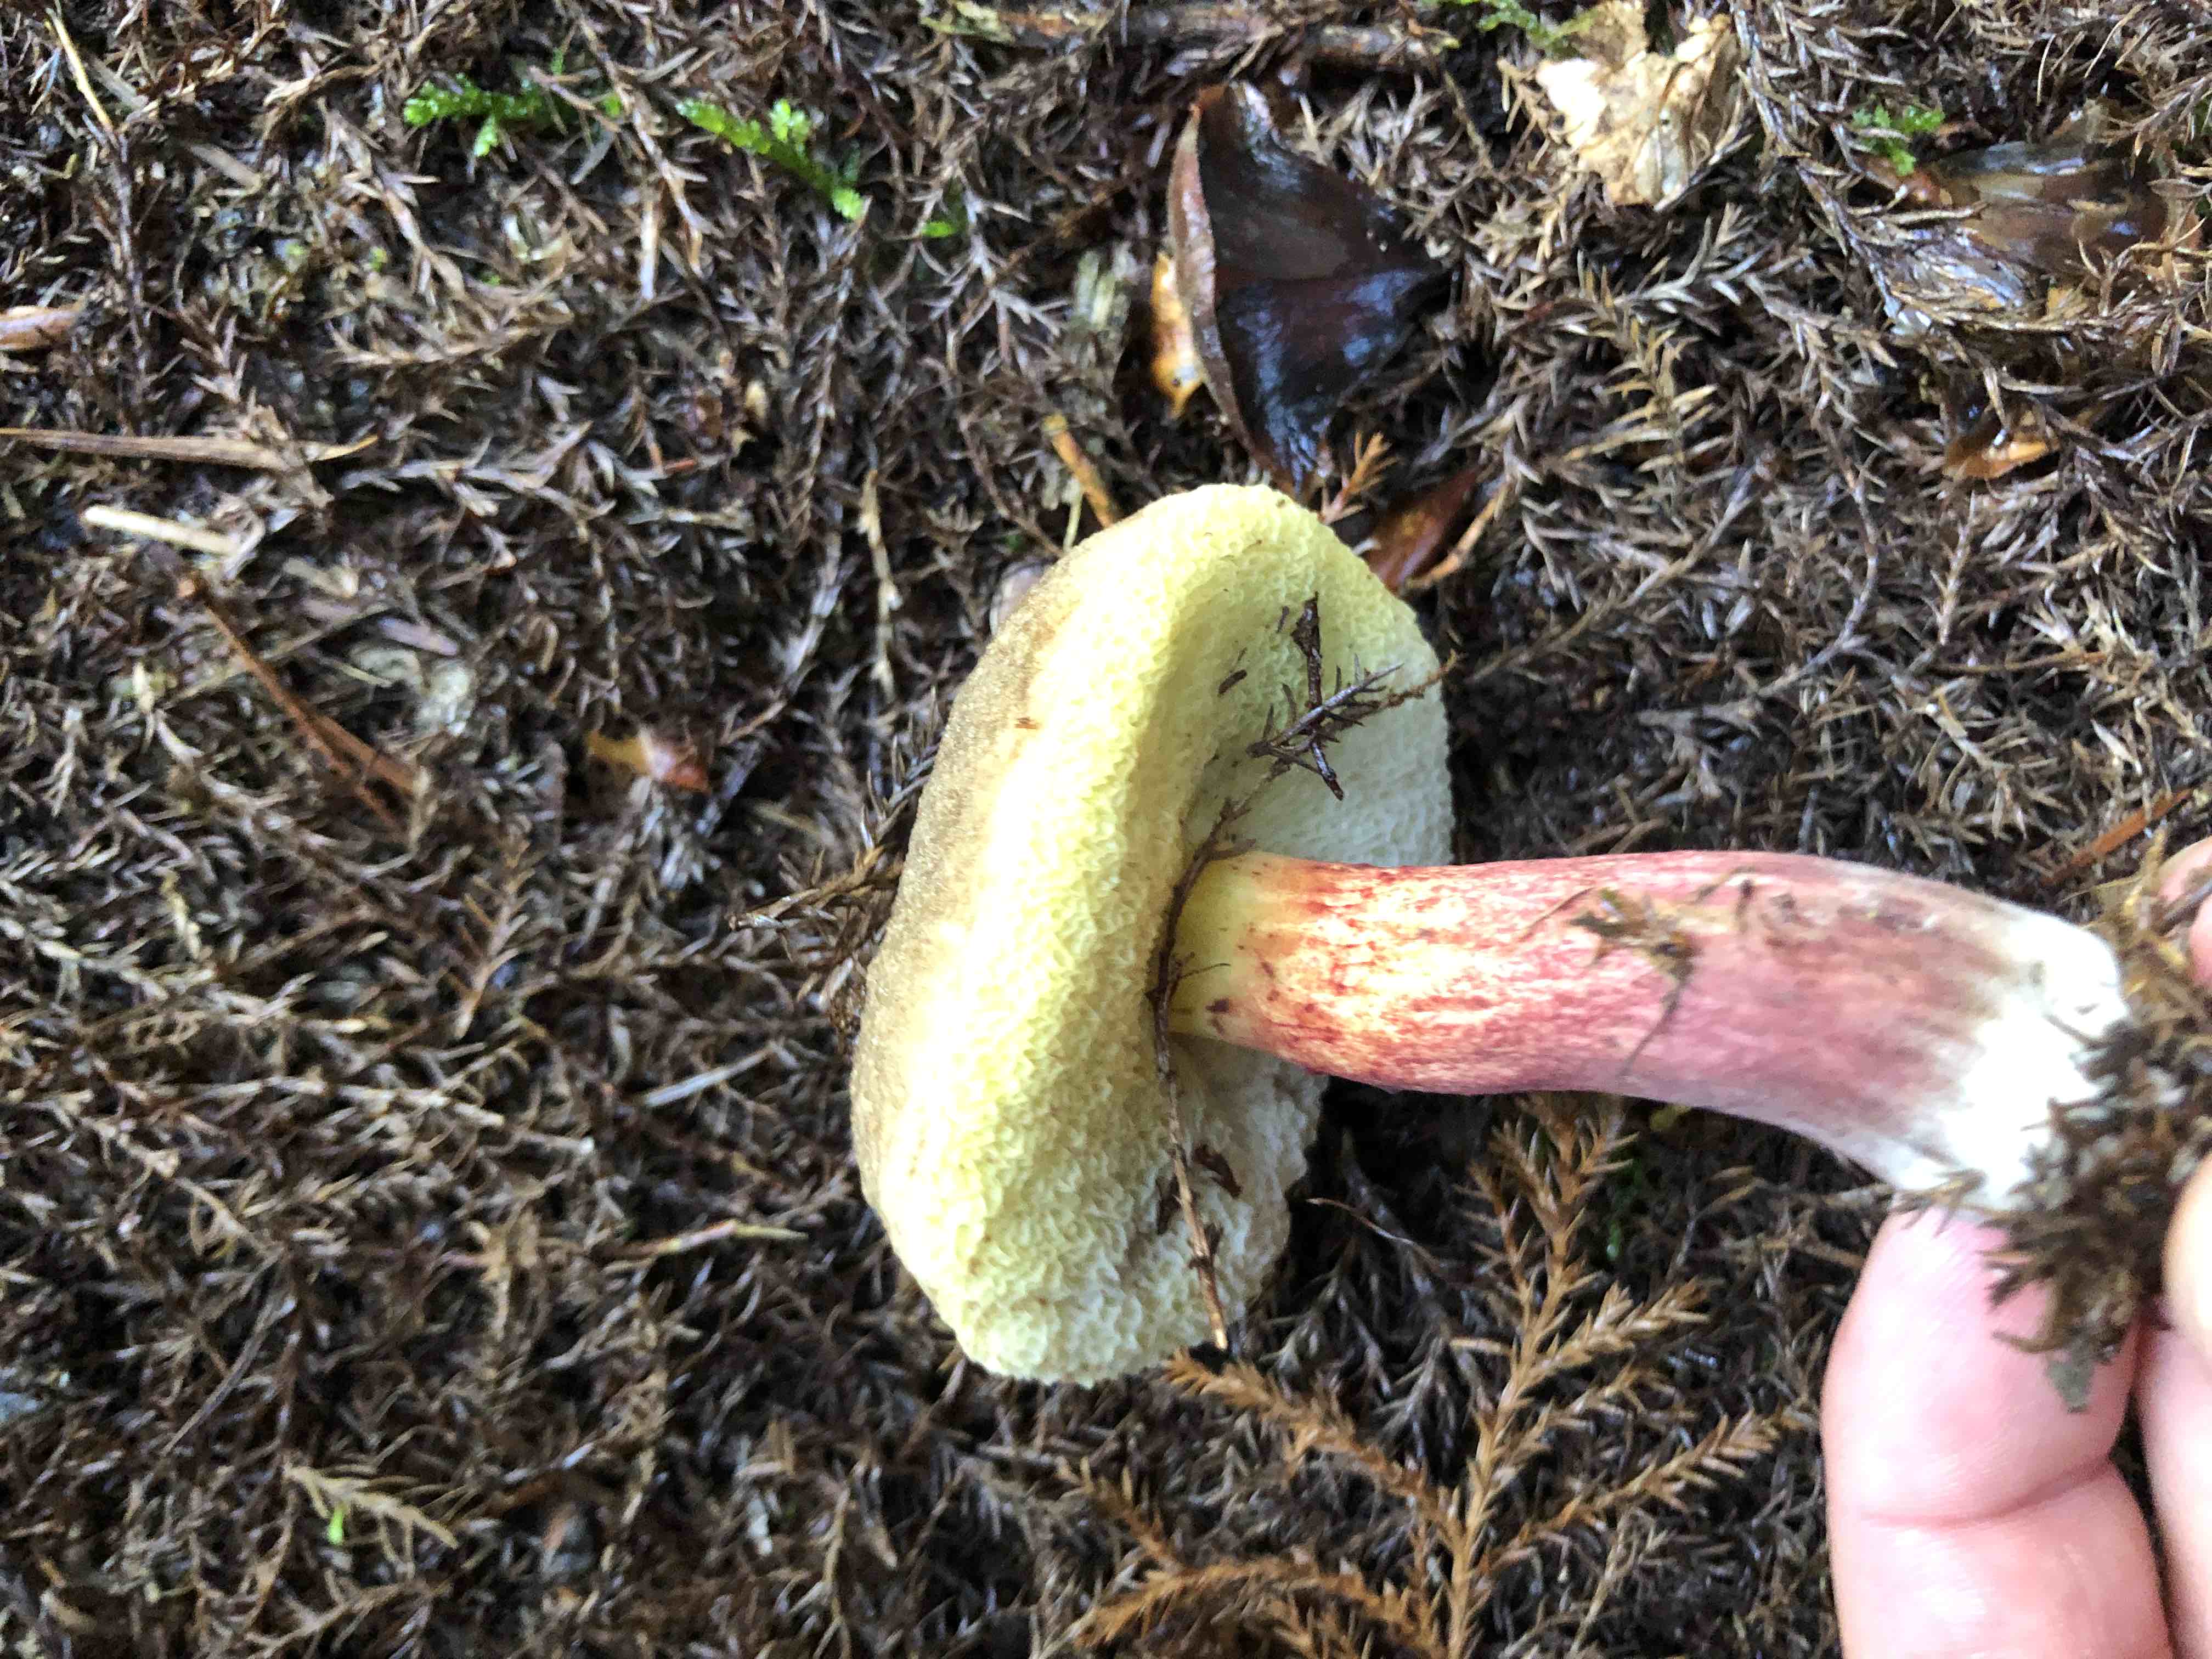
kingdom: Fungi
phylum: Basidiomycota
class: Agaricomycetes
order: Boletales
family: Boletaceae
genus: Xerocomellus
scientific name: Xerocomellus
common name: dværgrørhat
